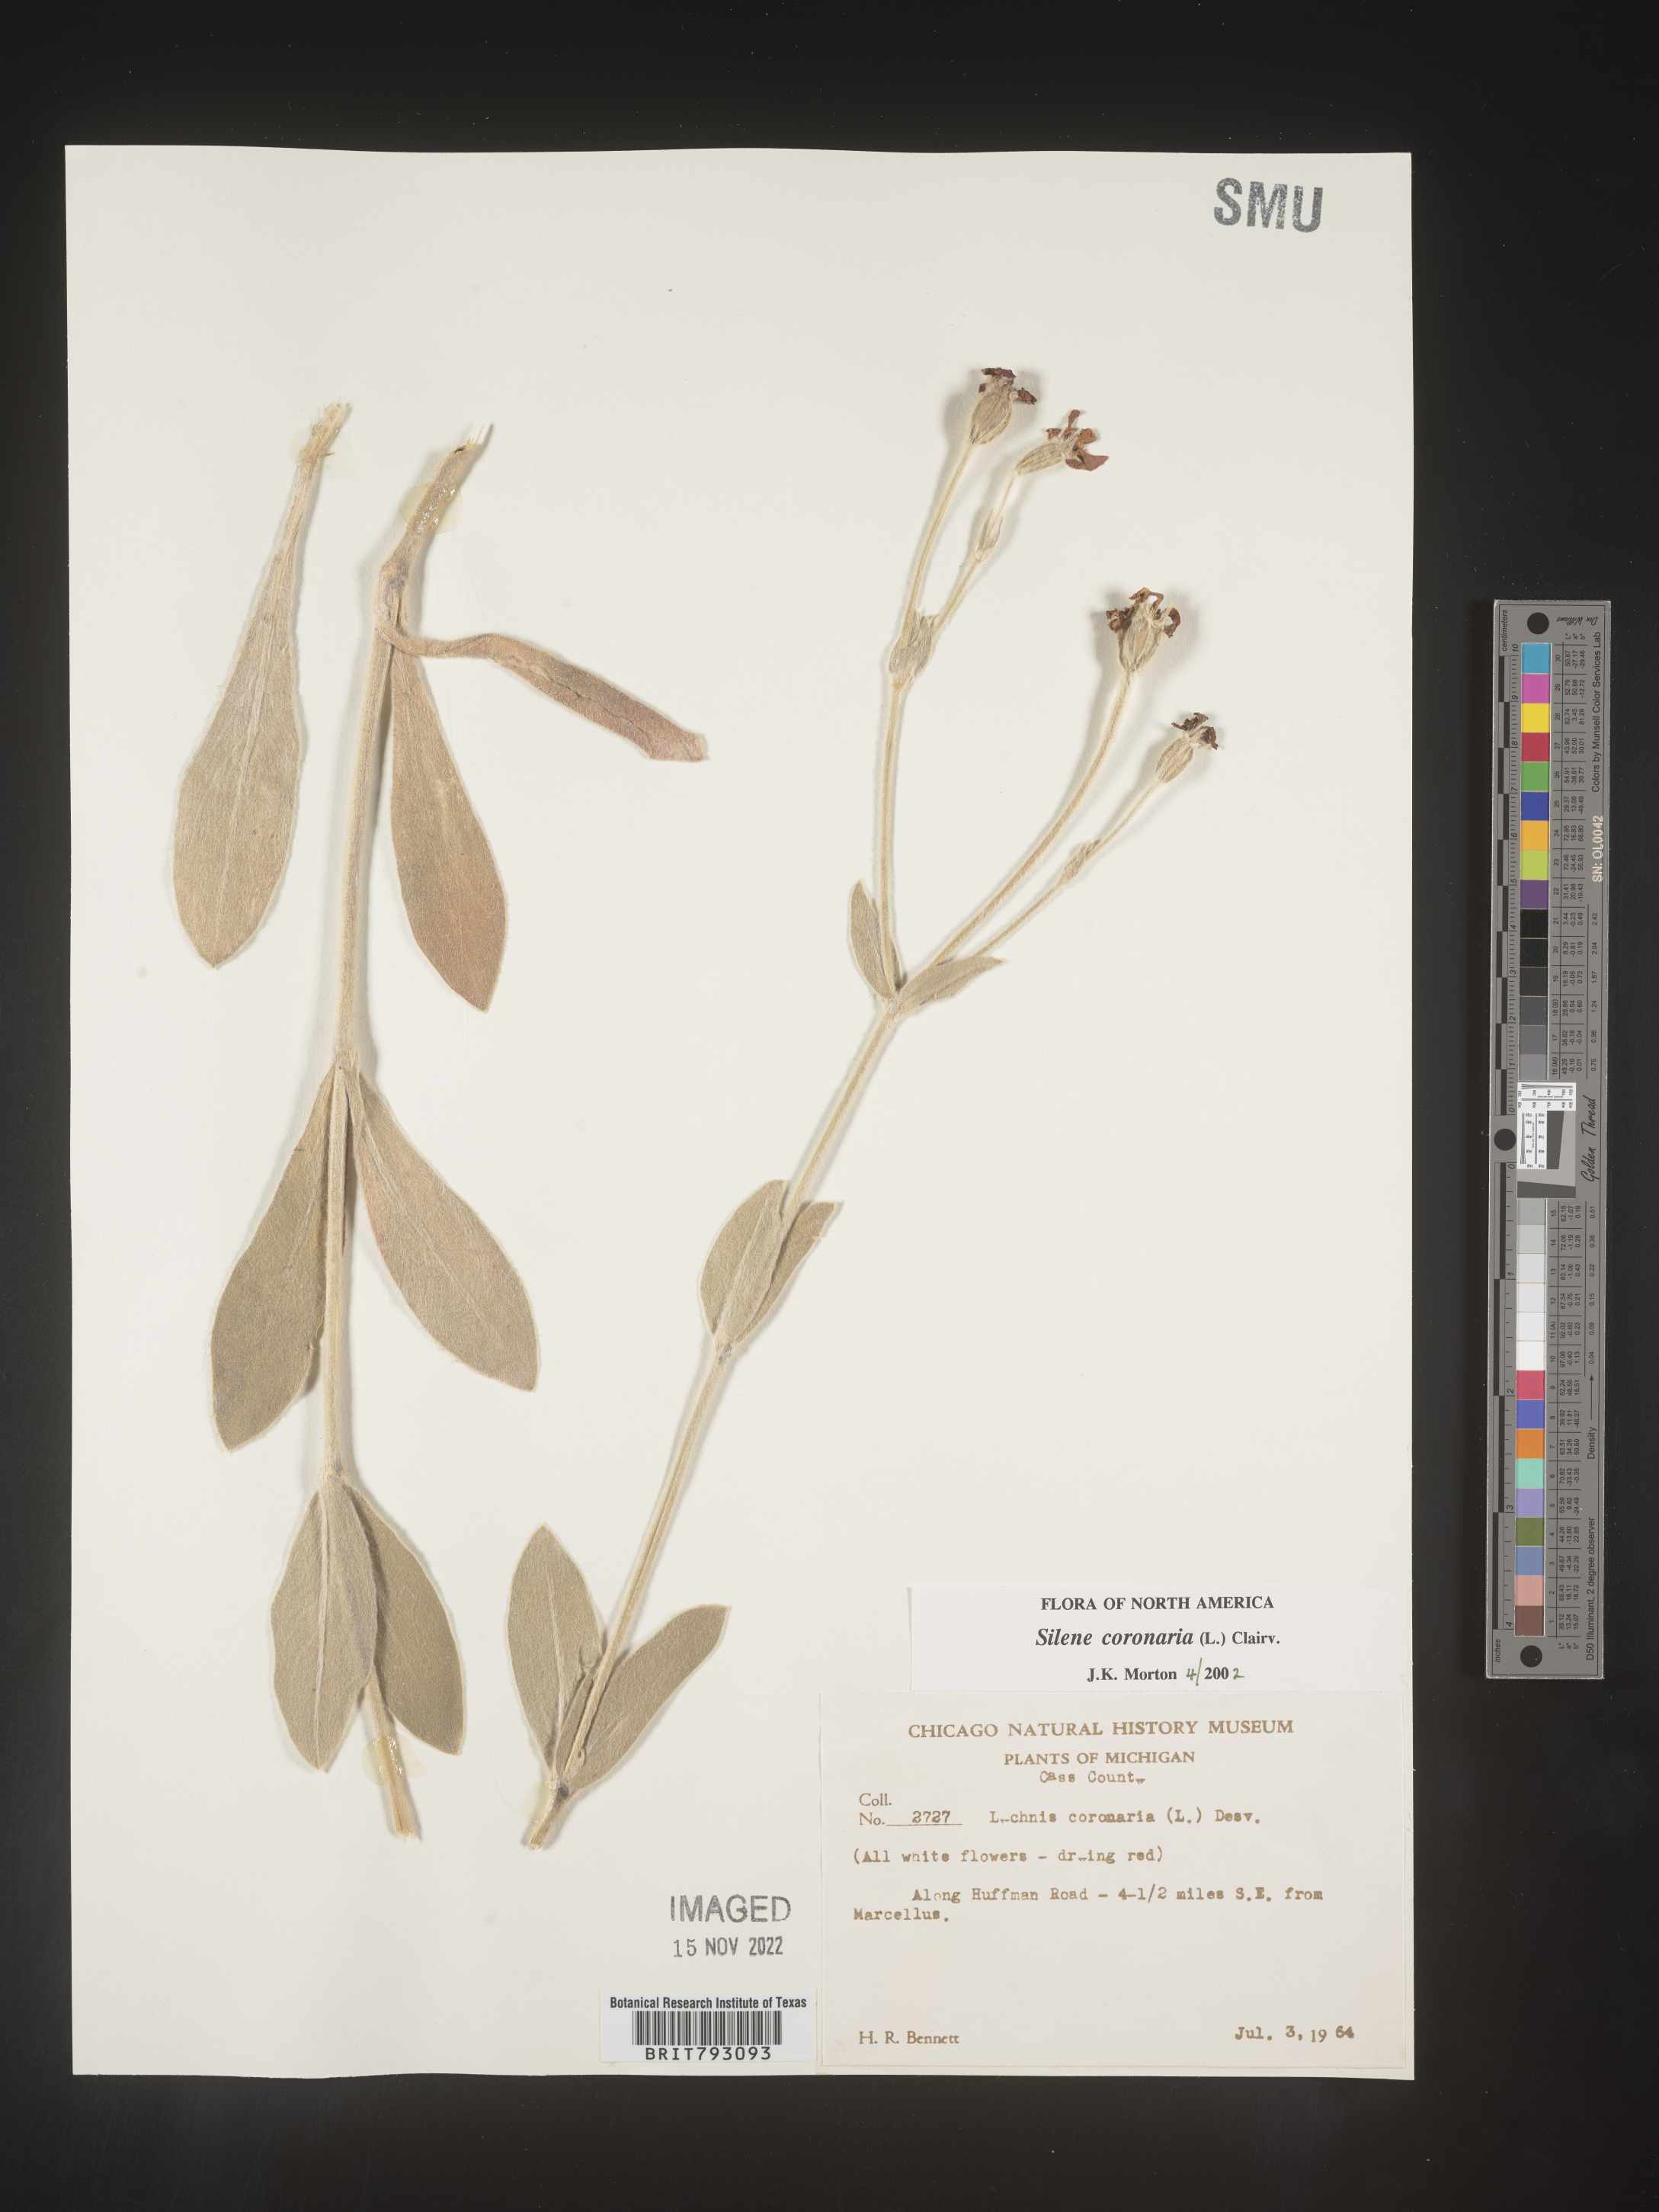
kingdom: Plantae
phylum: Tracheophyta
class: Magnoliopsida
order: Caryophyllales
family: Caryophyllaceae
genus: Silene
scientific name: Silene coronaria
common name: Rose campion
